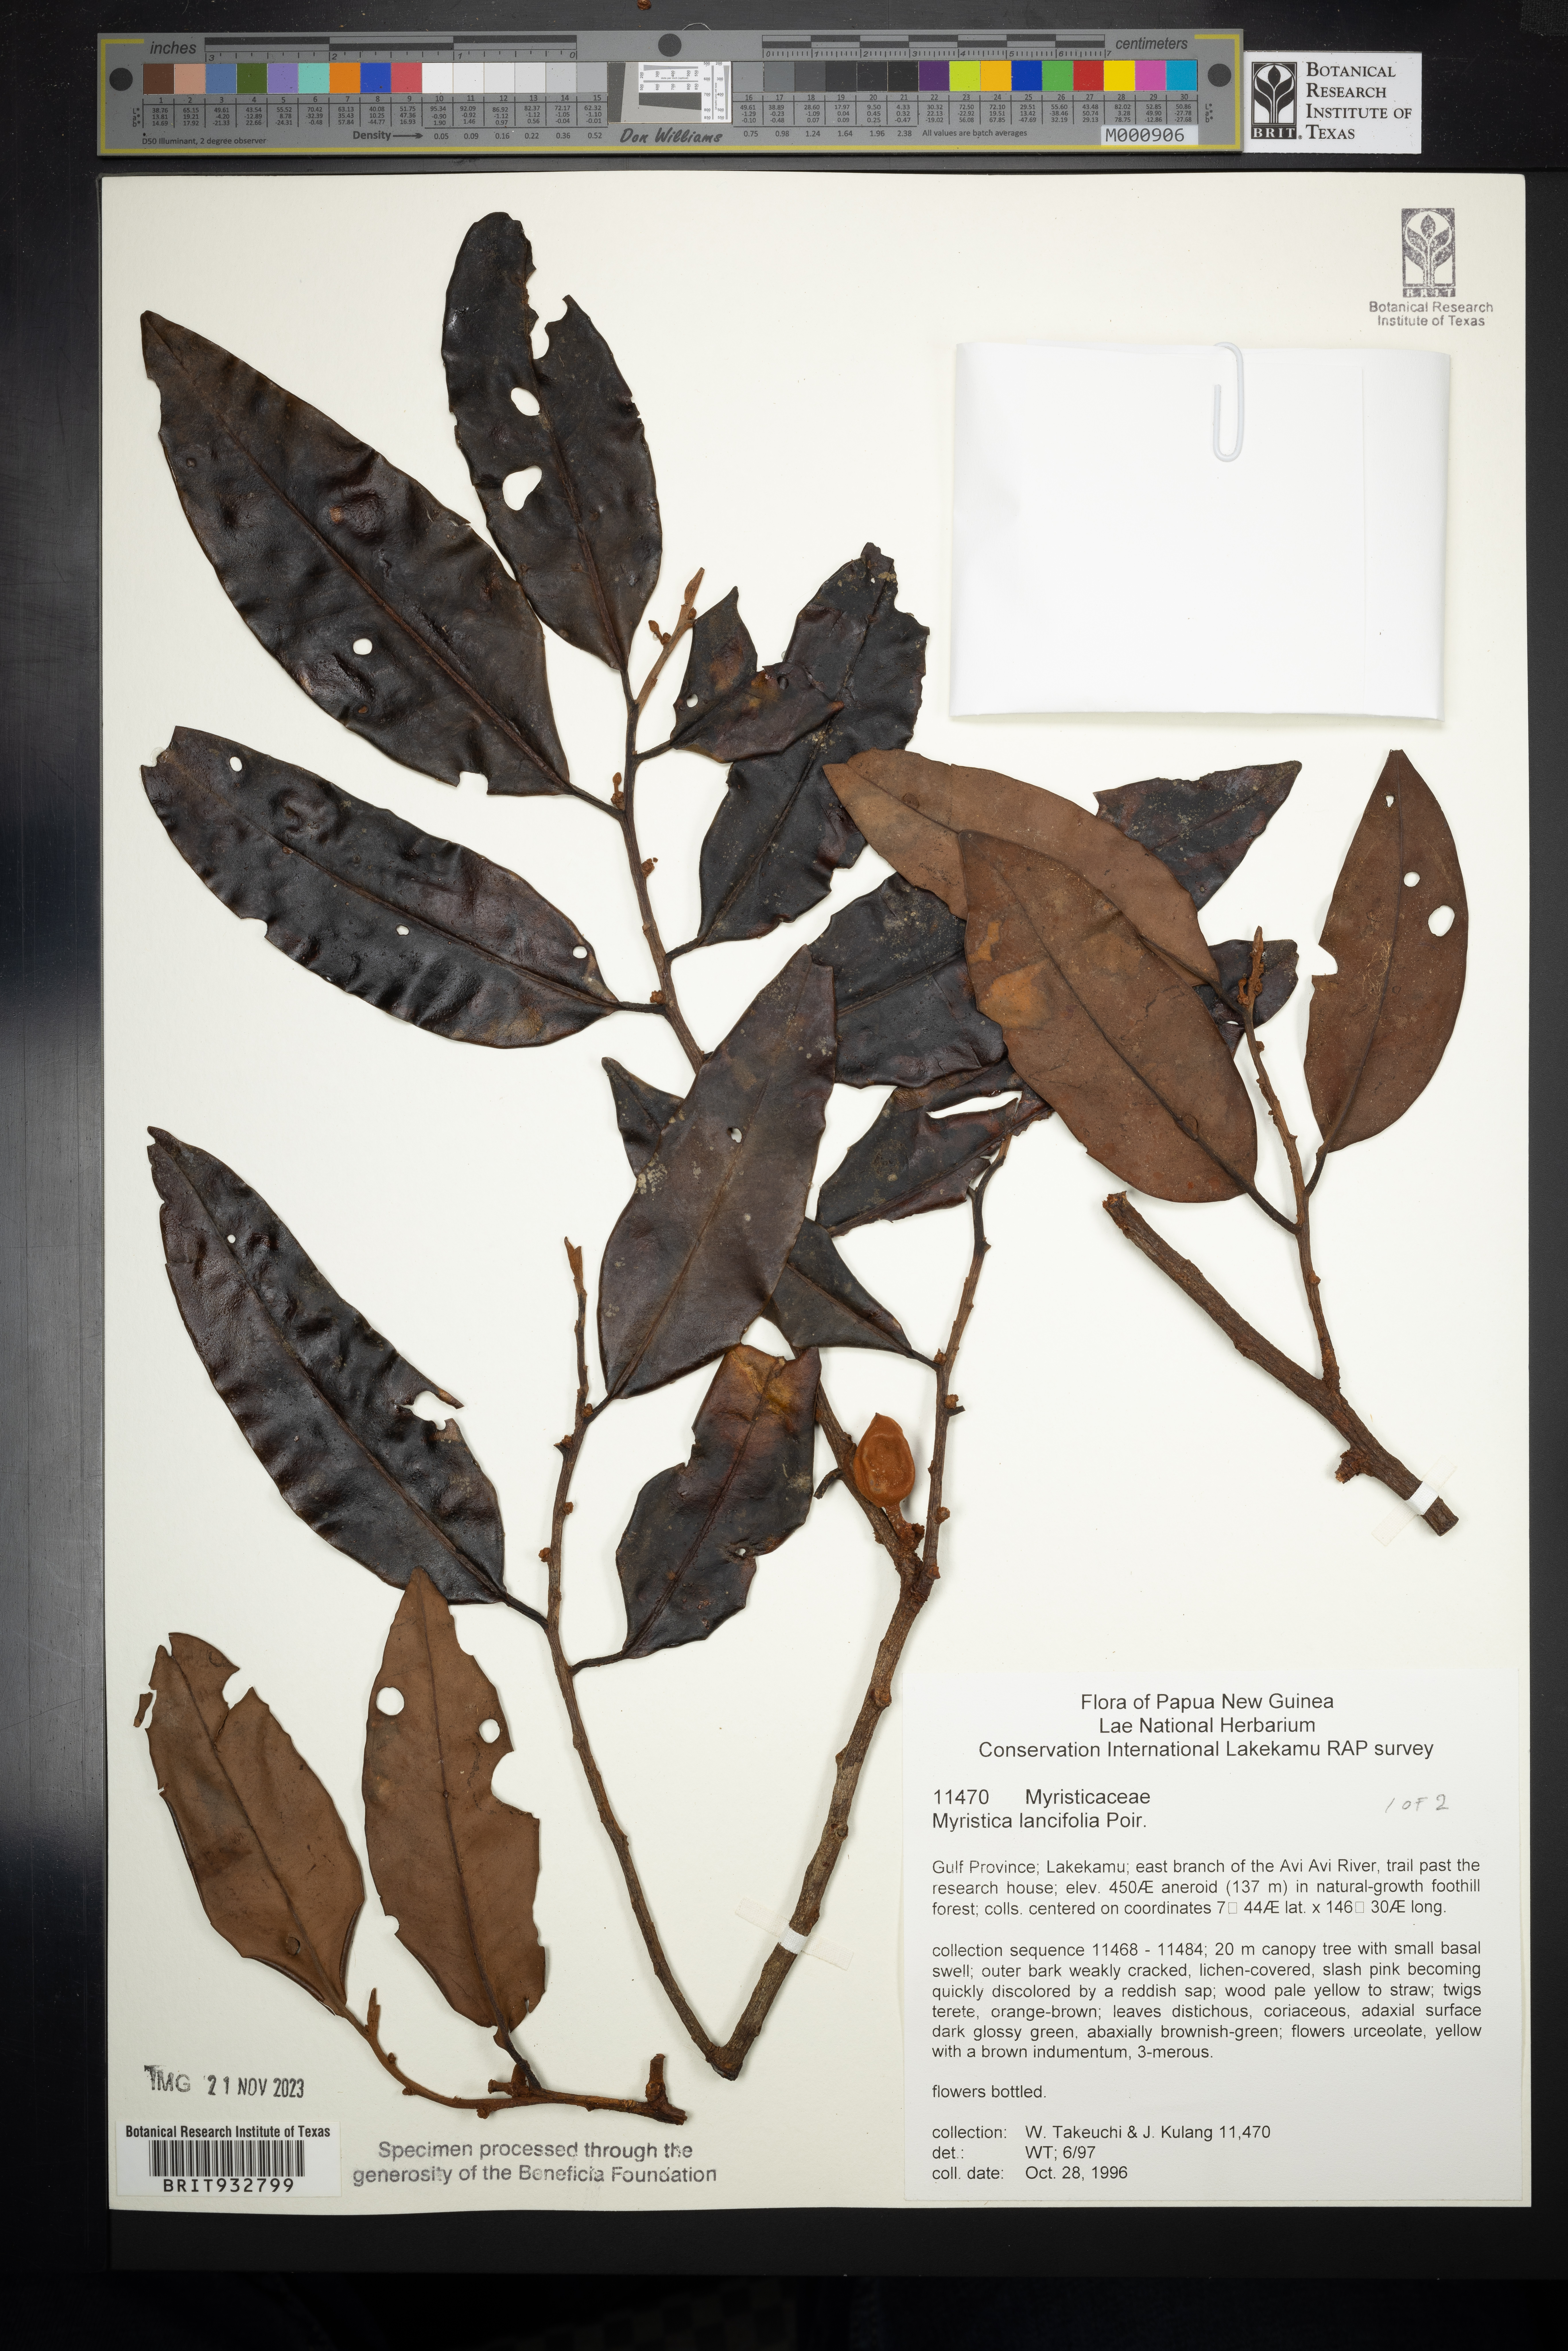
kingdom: Plantae
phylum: Tracheophyta
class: Magnoliopsida
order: Magnoliales
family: Myristicaceae
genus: Myristica
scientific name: Myristica
